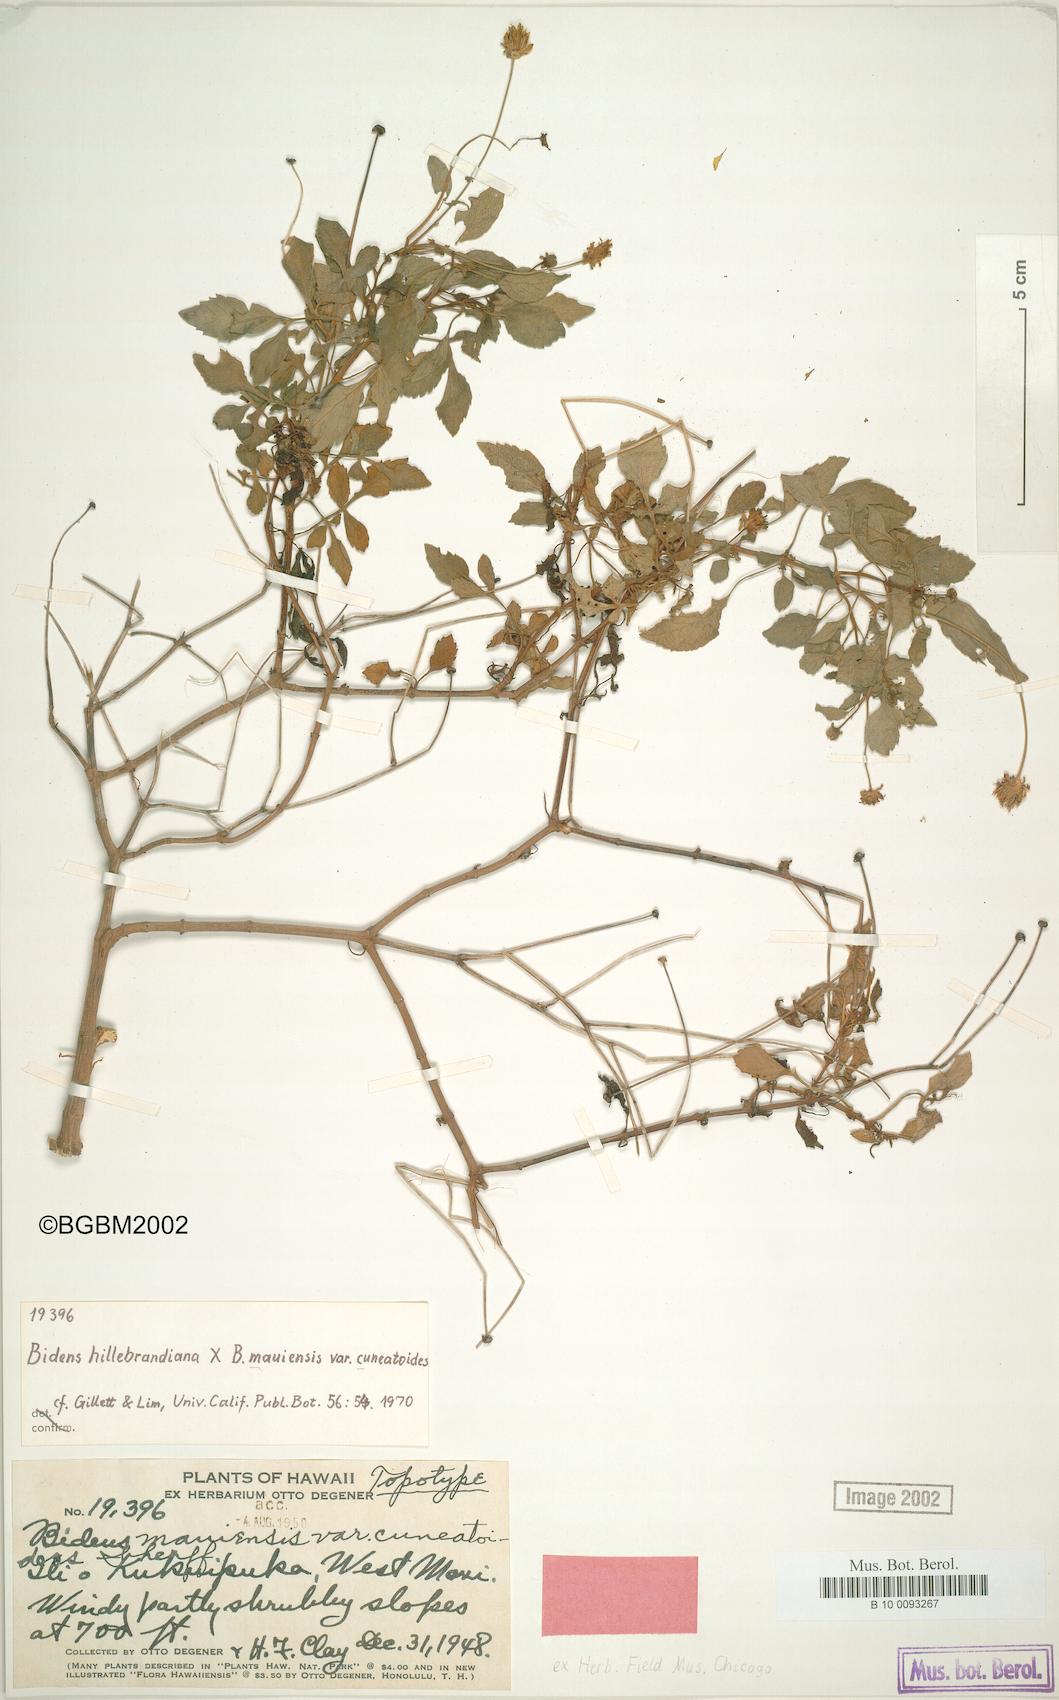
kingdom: Plantae
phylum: Tracheophyta
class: Magnoliopsida
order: Asterales
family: Asteraceae
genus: Bidens
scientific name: Bidens mauiensis
